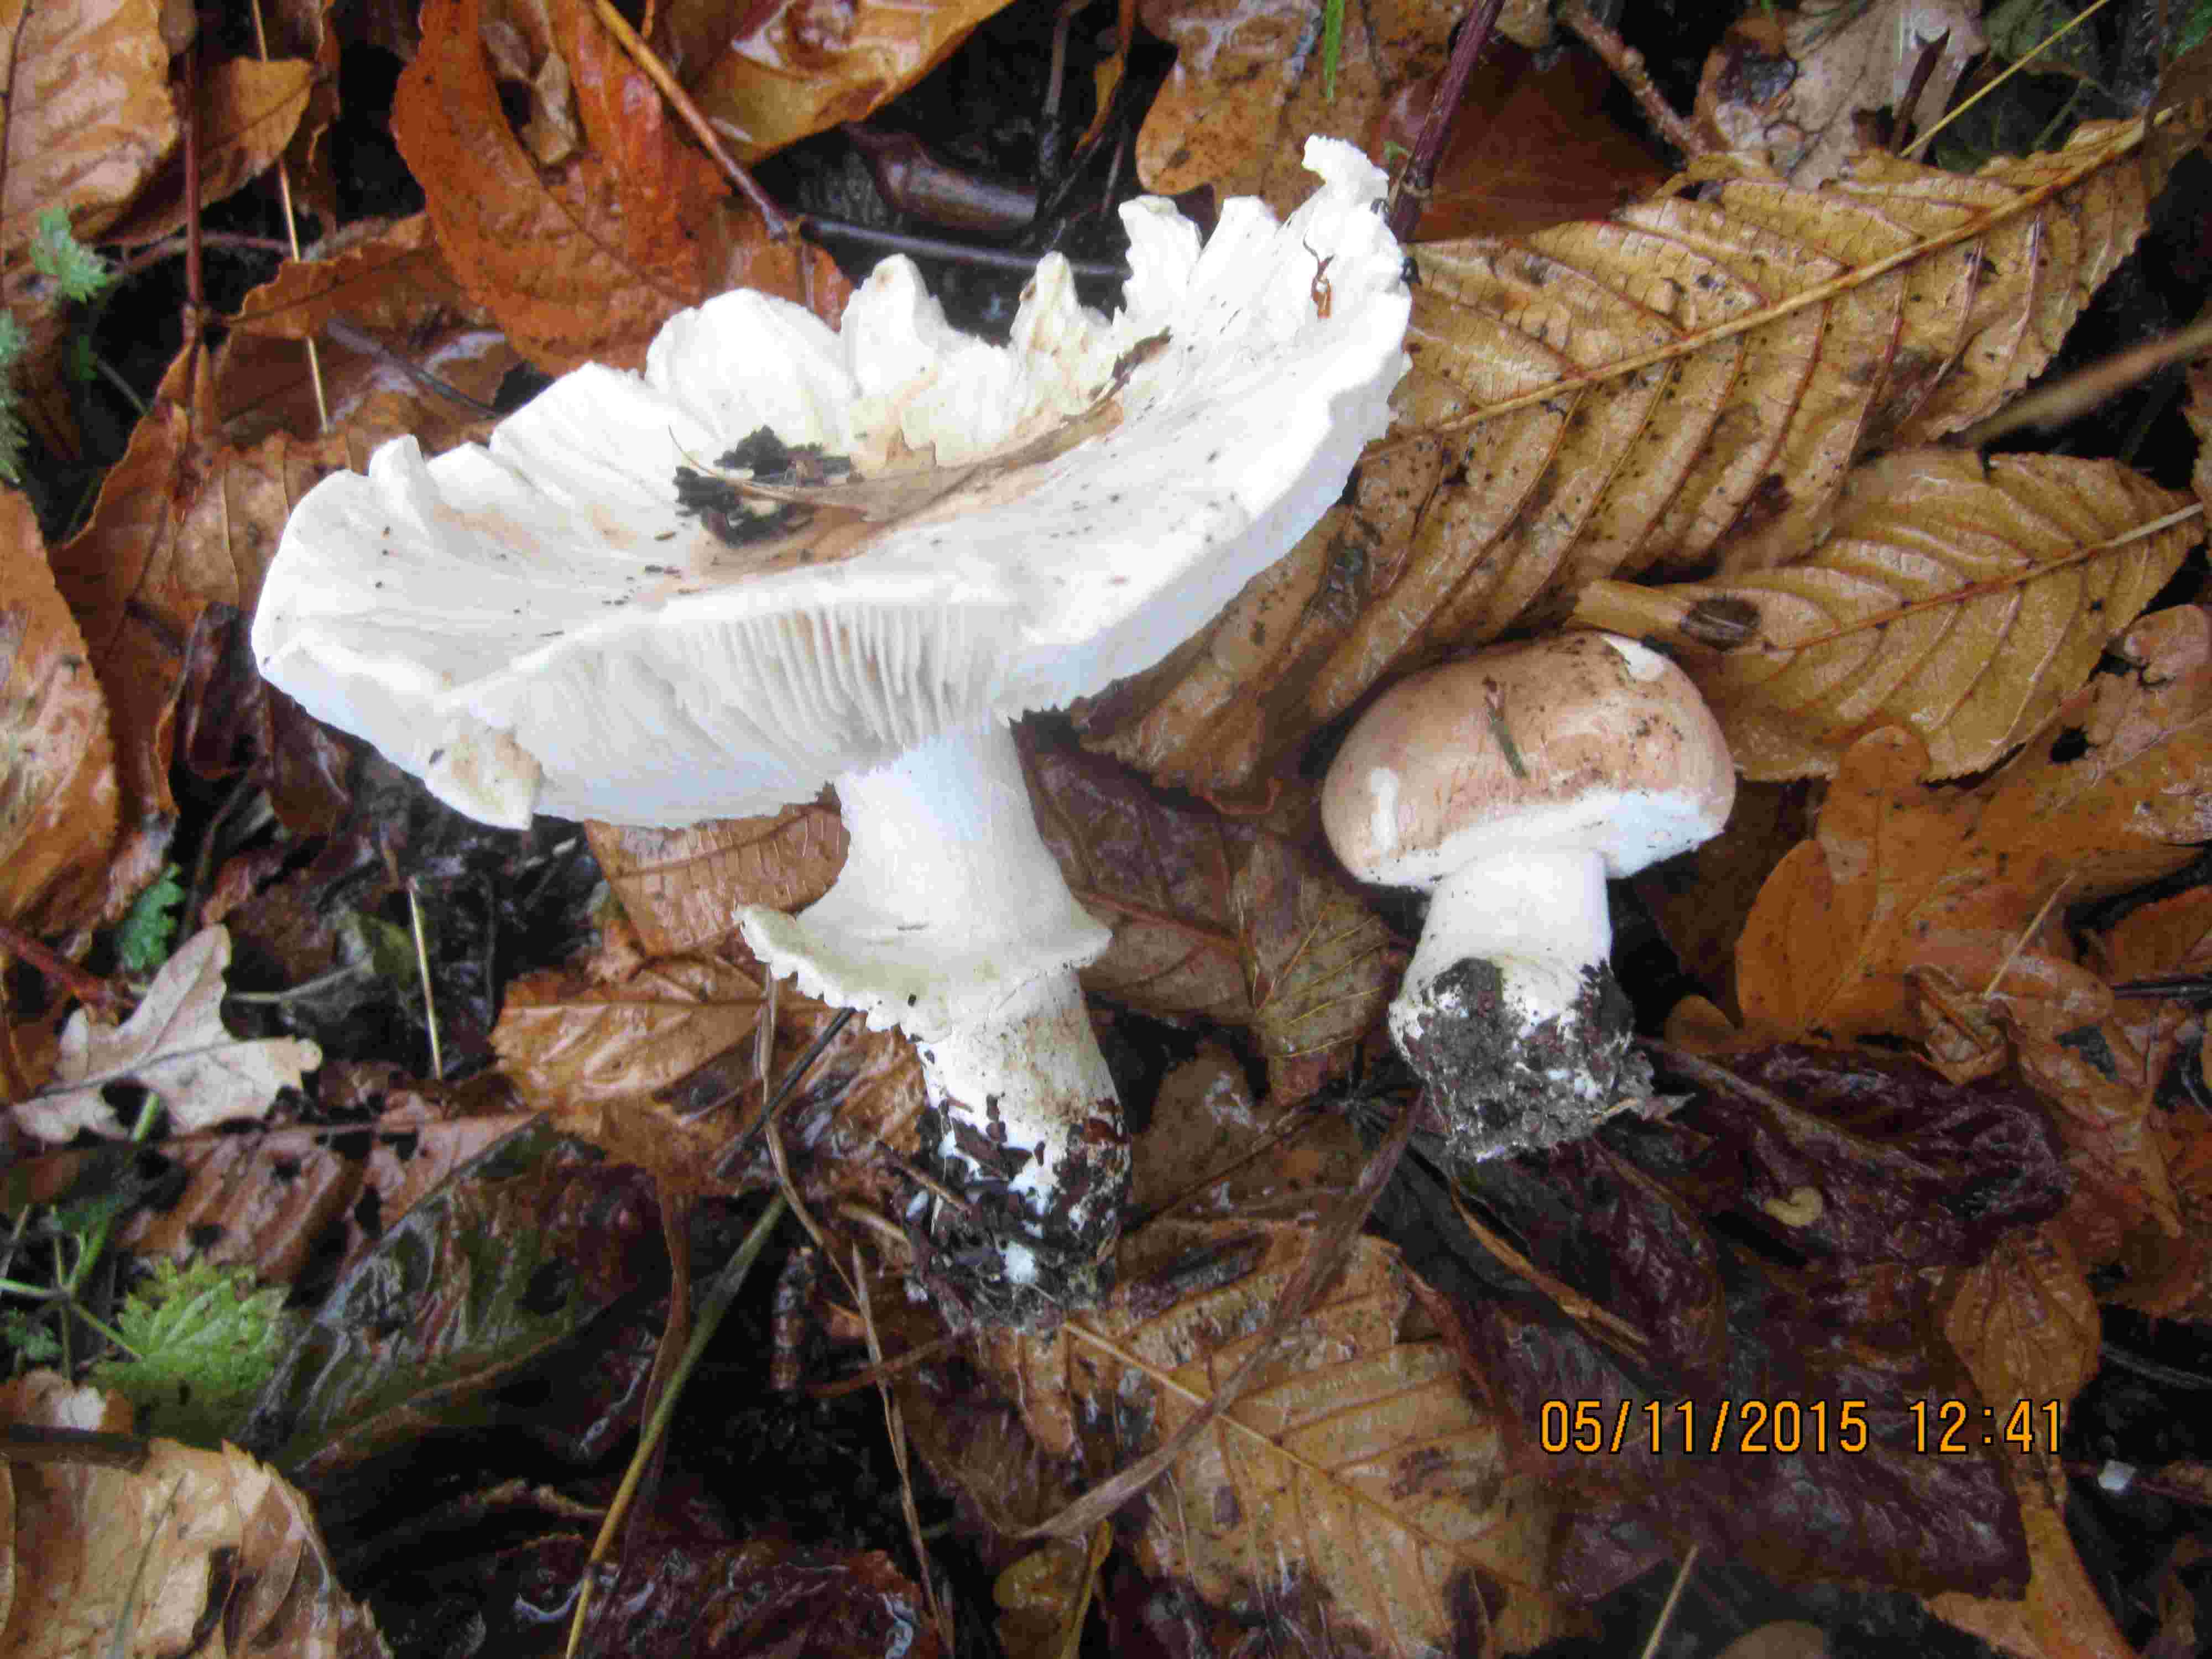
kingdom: Fungi
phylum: Basidiomycota
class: Agaricomycetes
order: Agaricales
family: Amanitaceae
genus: Limacellopsis
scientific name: Limacellopsis guttata
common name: tåre-snekkehat
